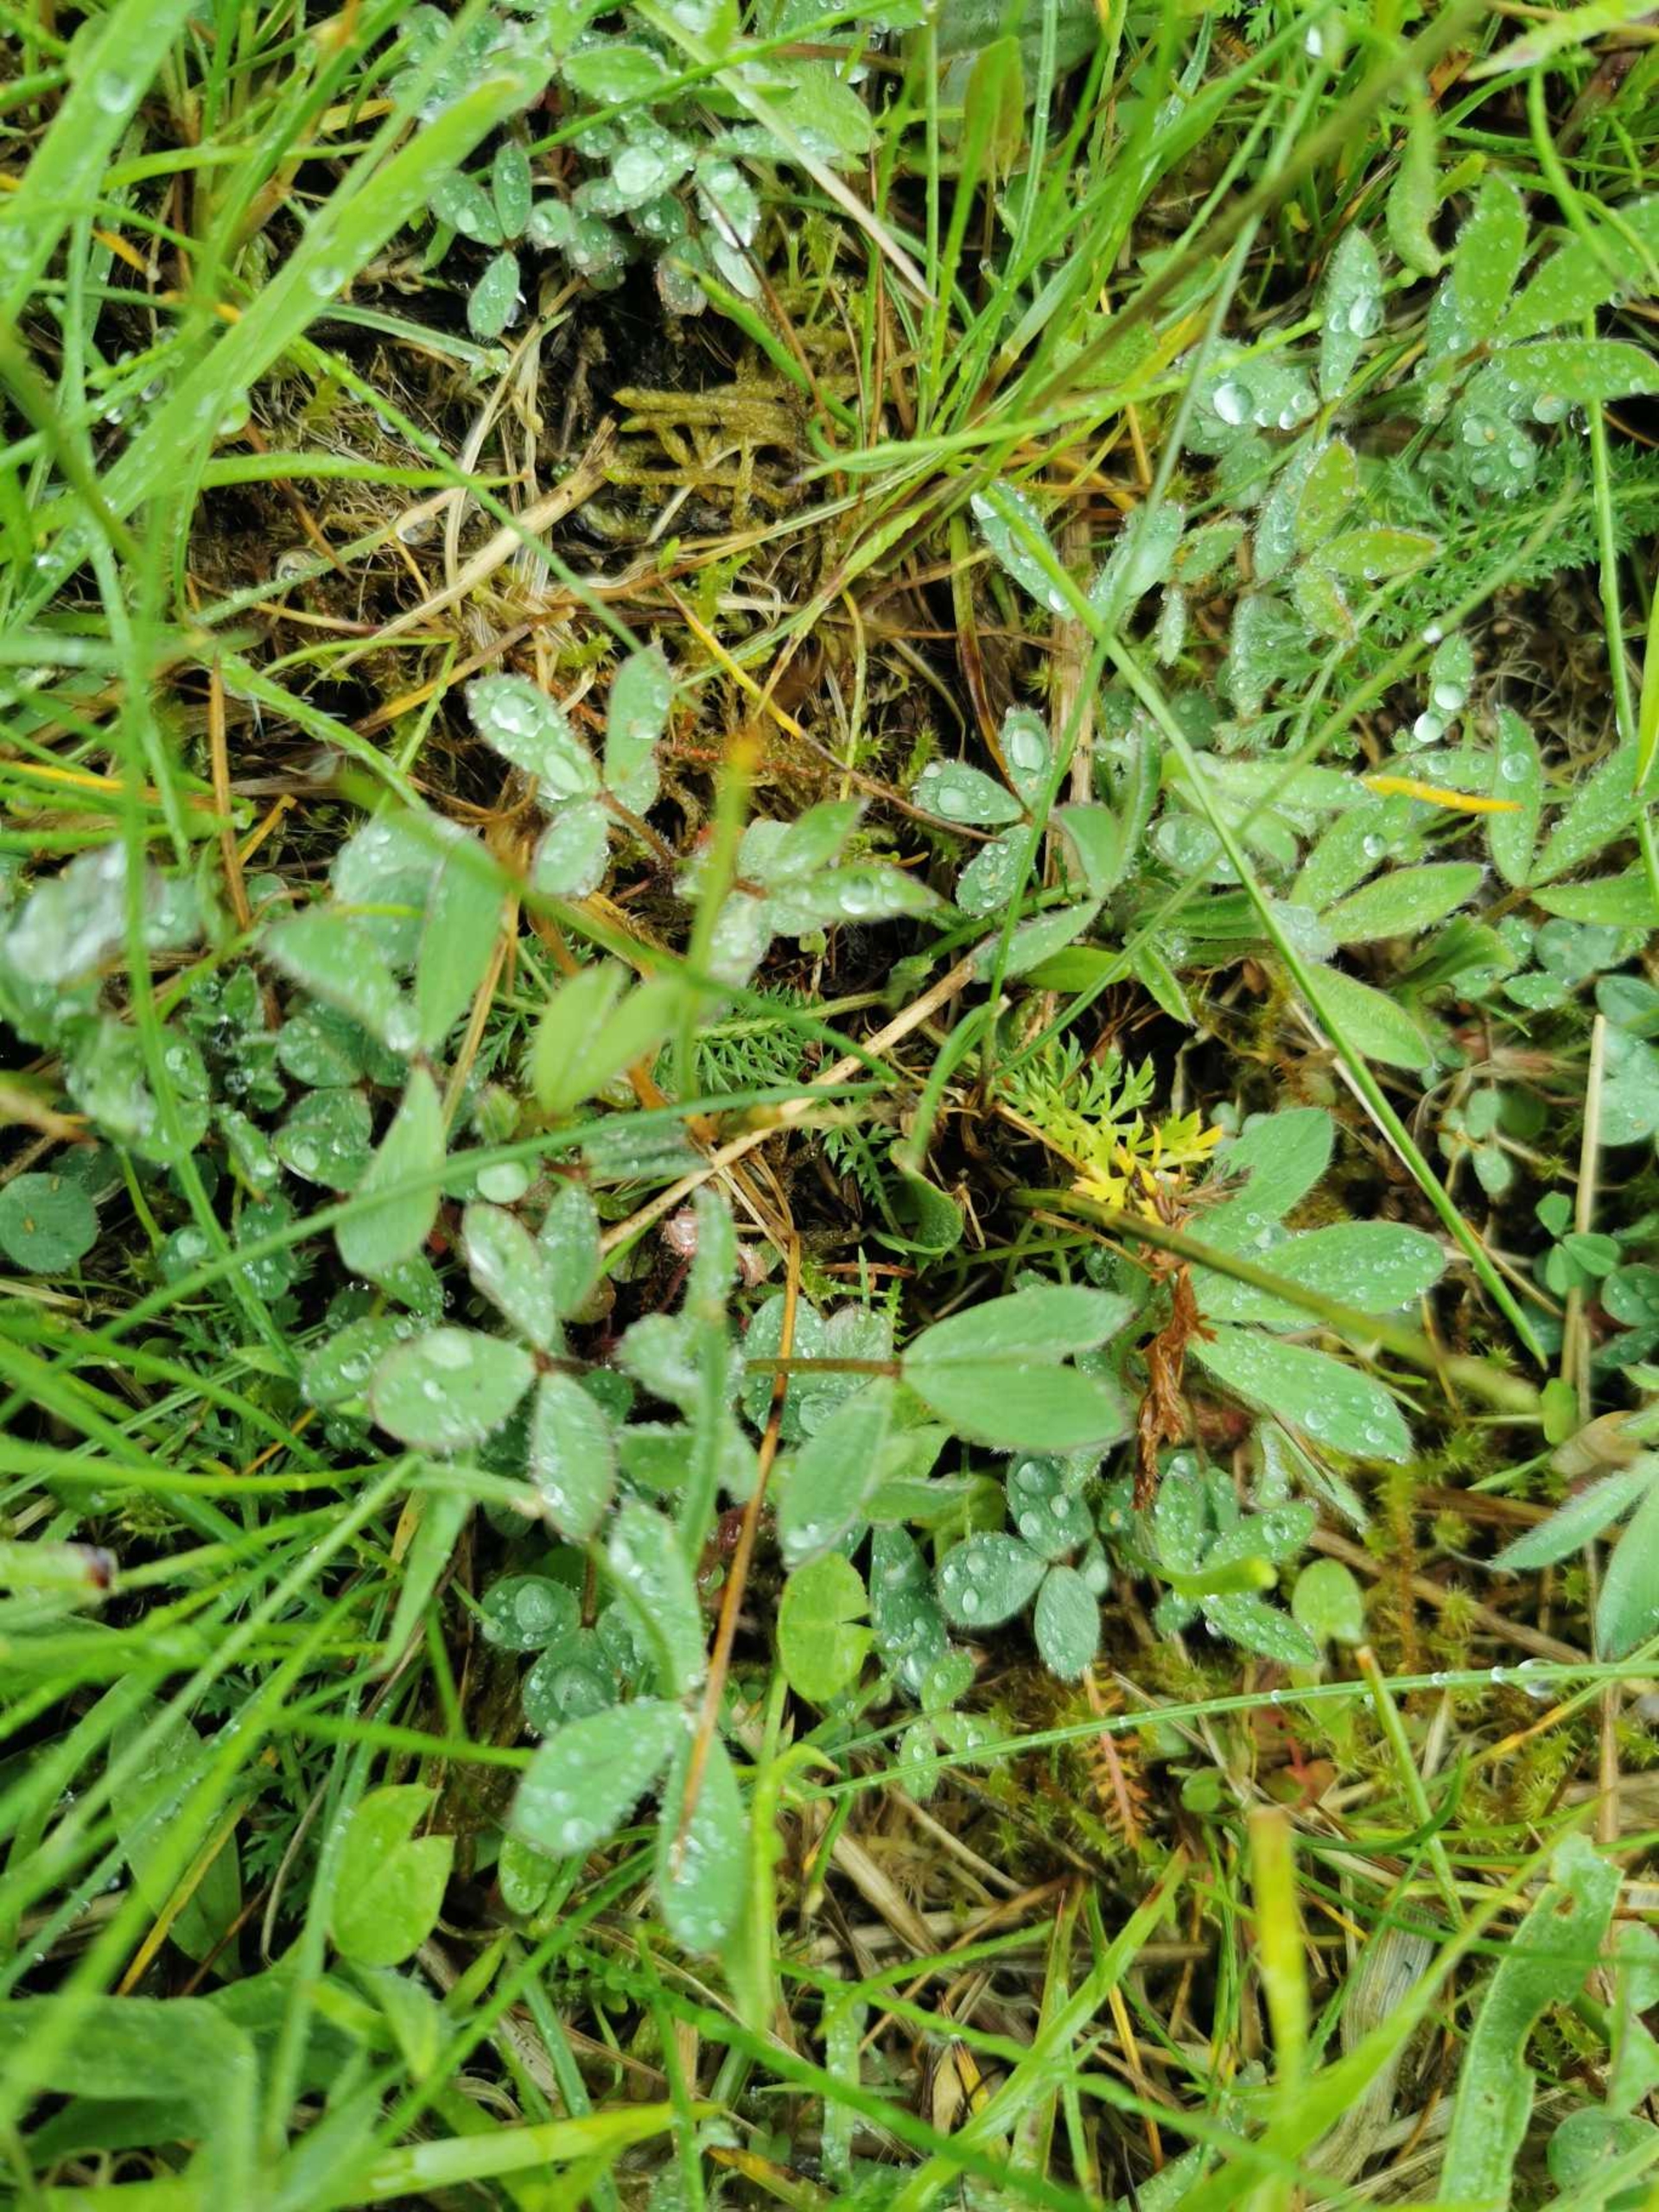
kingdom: Plantae
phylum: Tracheophyta
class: Magnoliopsida
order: Fabales
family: Fabaceae
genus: Trifolium
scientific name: Trifolium arvense
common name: Hare-kløver
